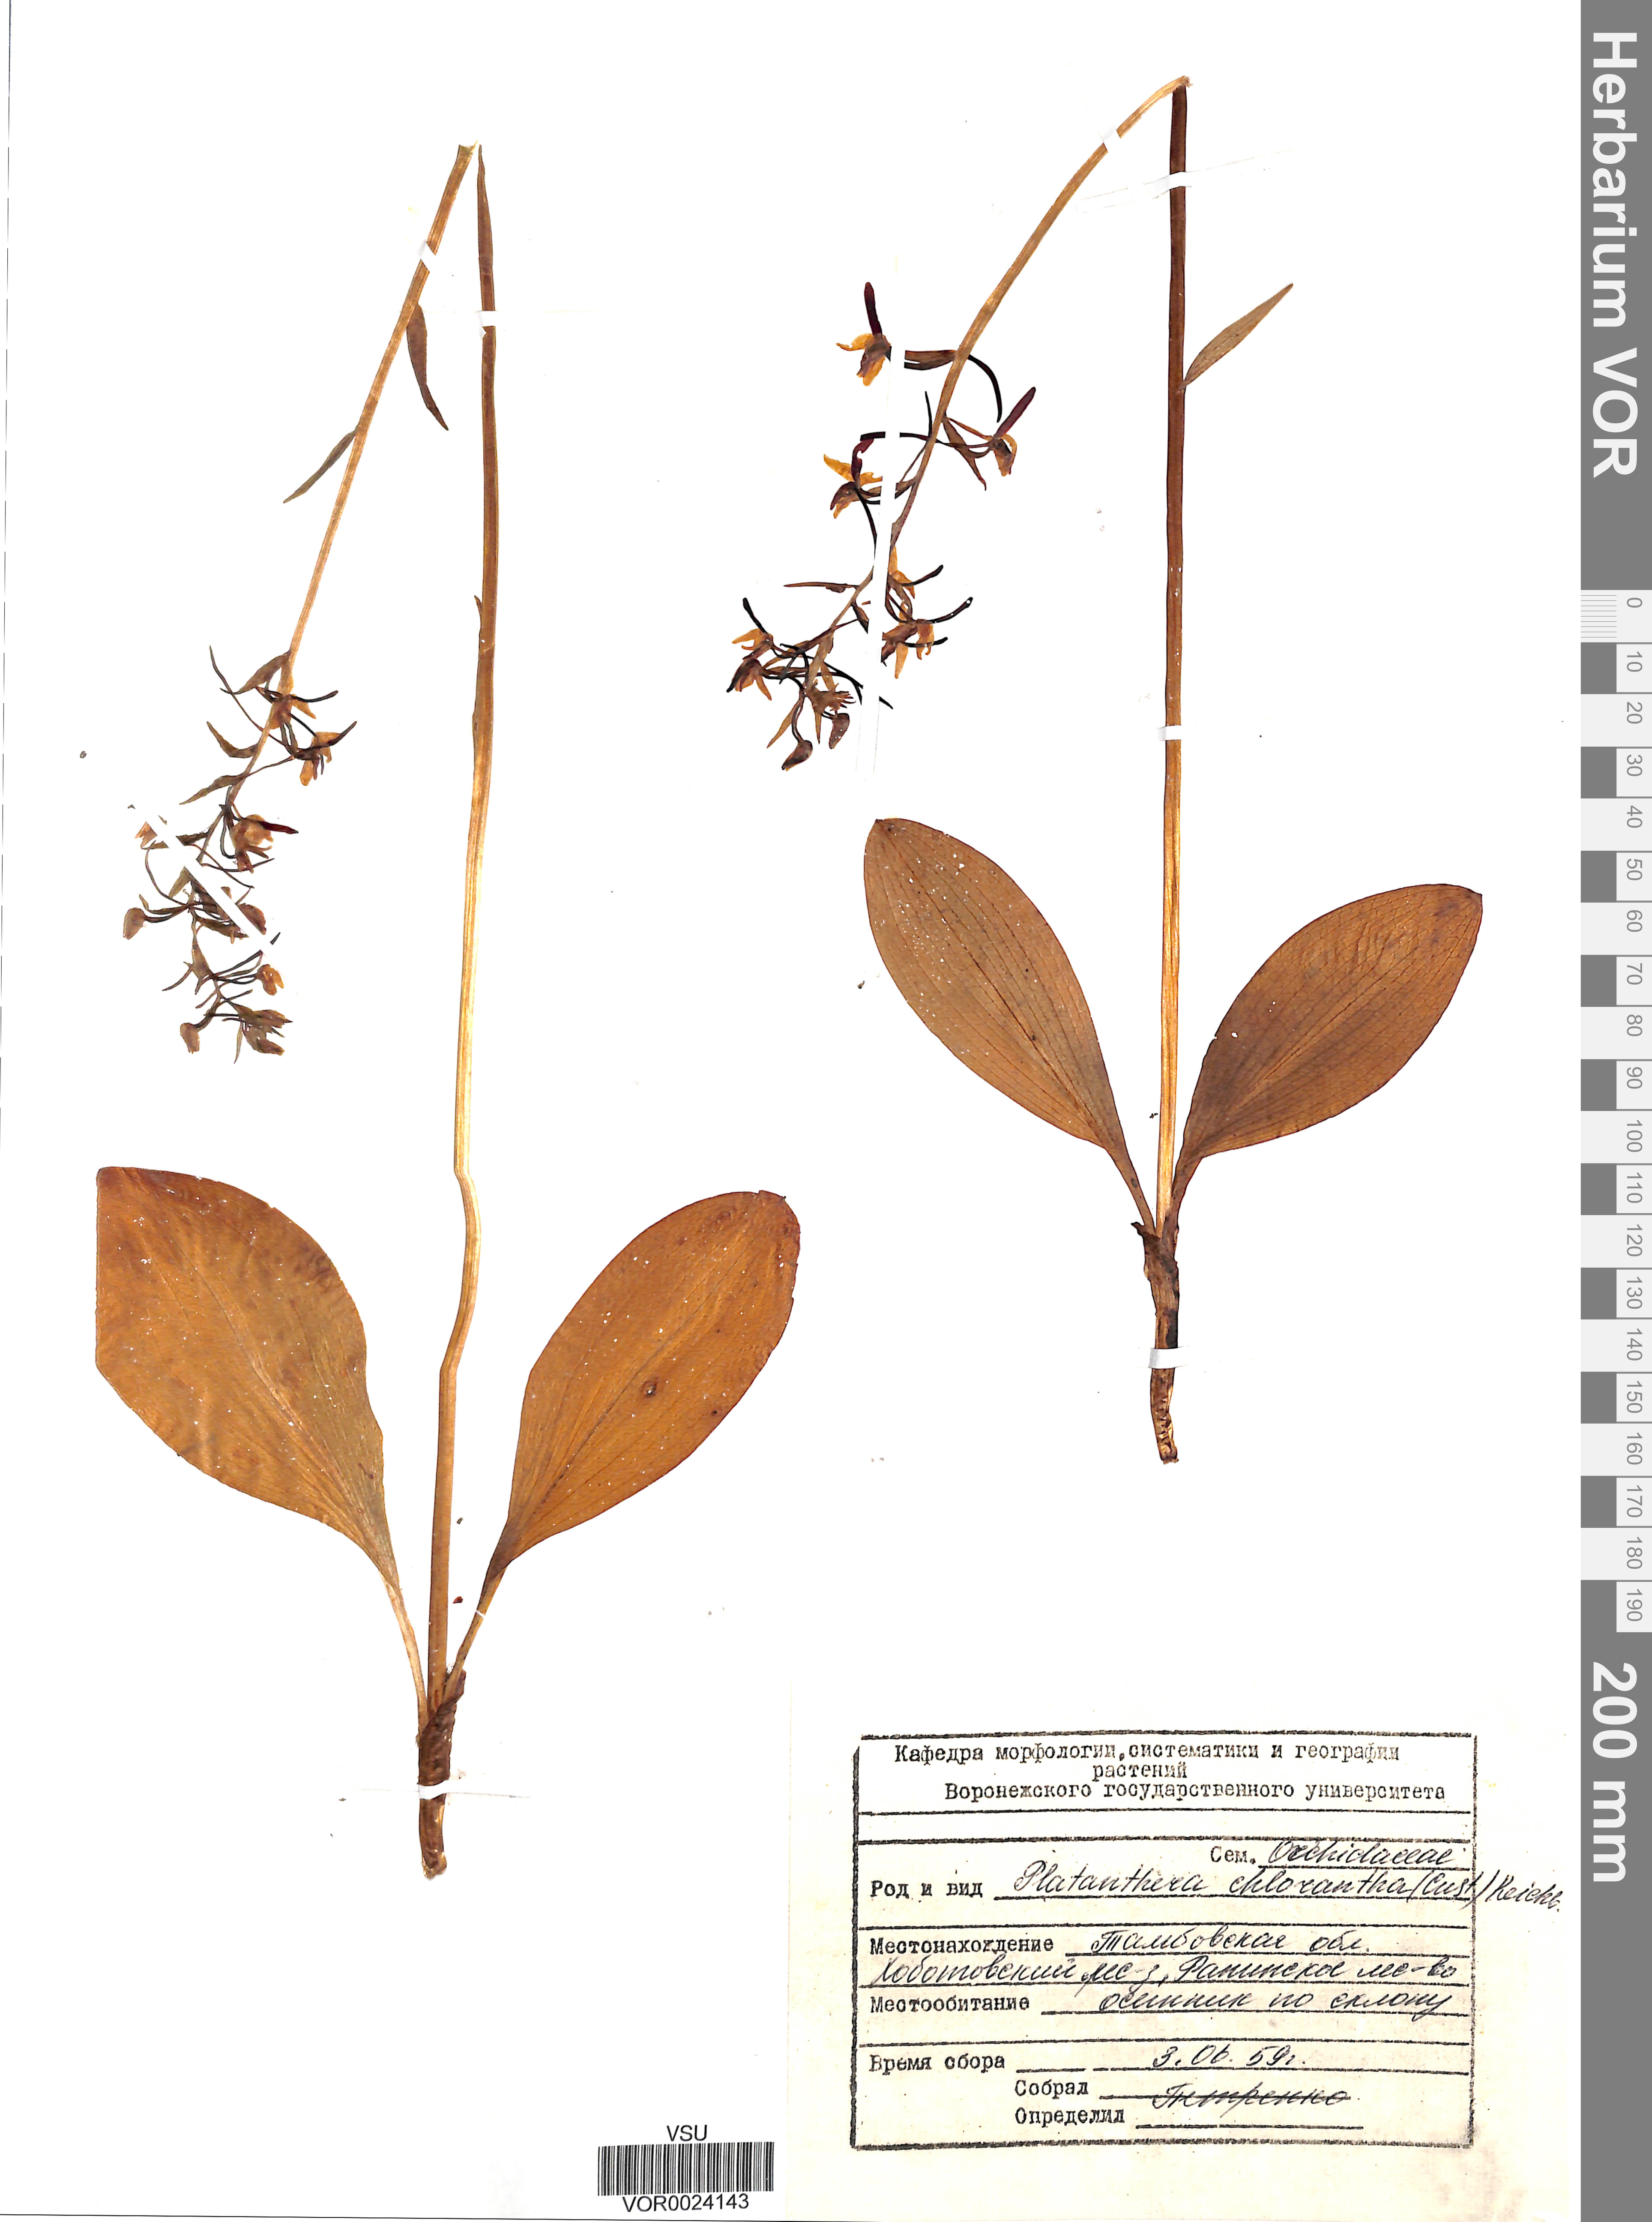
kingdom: Plantae
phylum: Tracheophyta
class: Liliopsida
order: Asparagales
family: Orchidaceae
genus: Platanthera
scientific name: Platanthera chlorantha
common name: Greater butterfly-orchid
